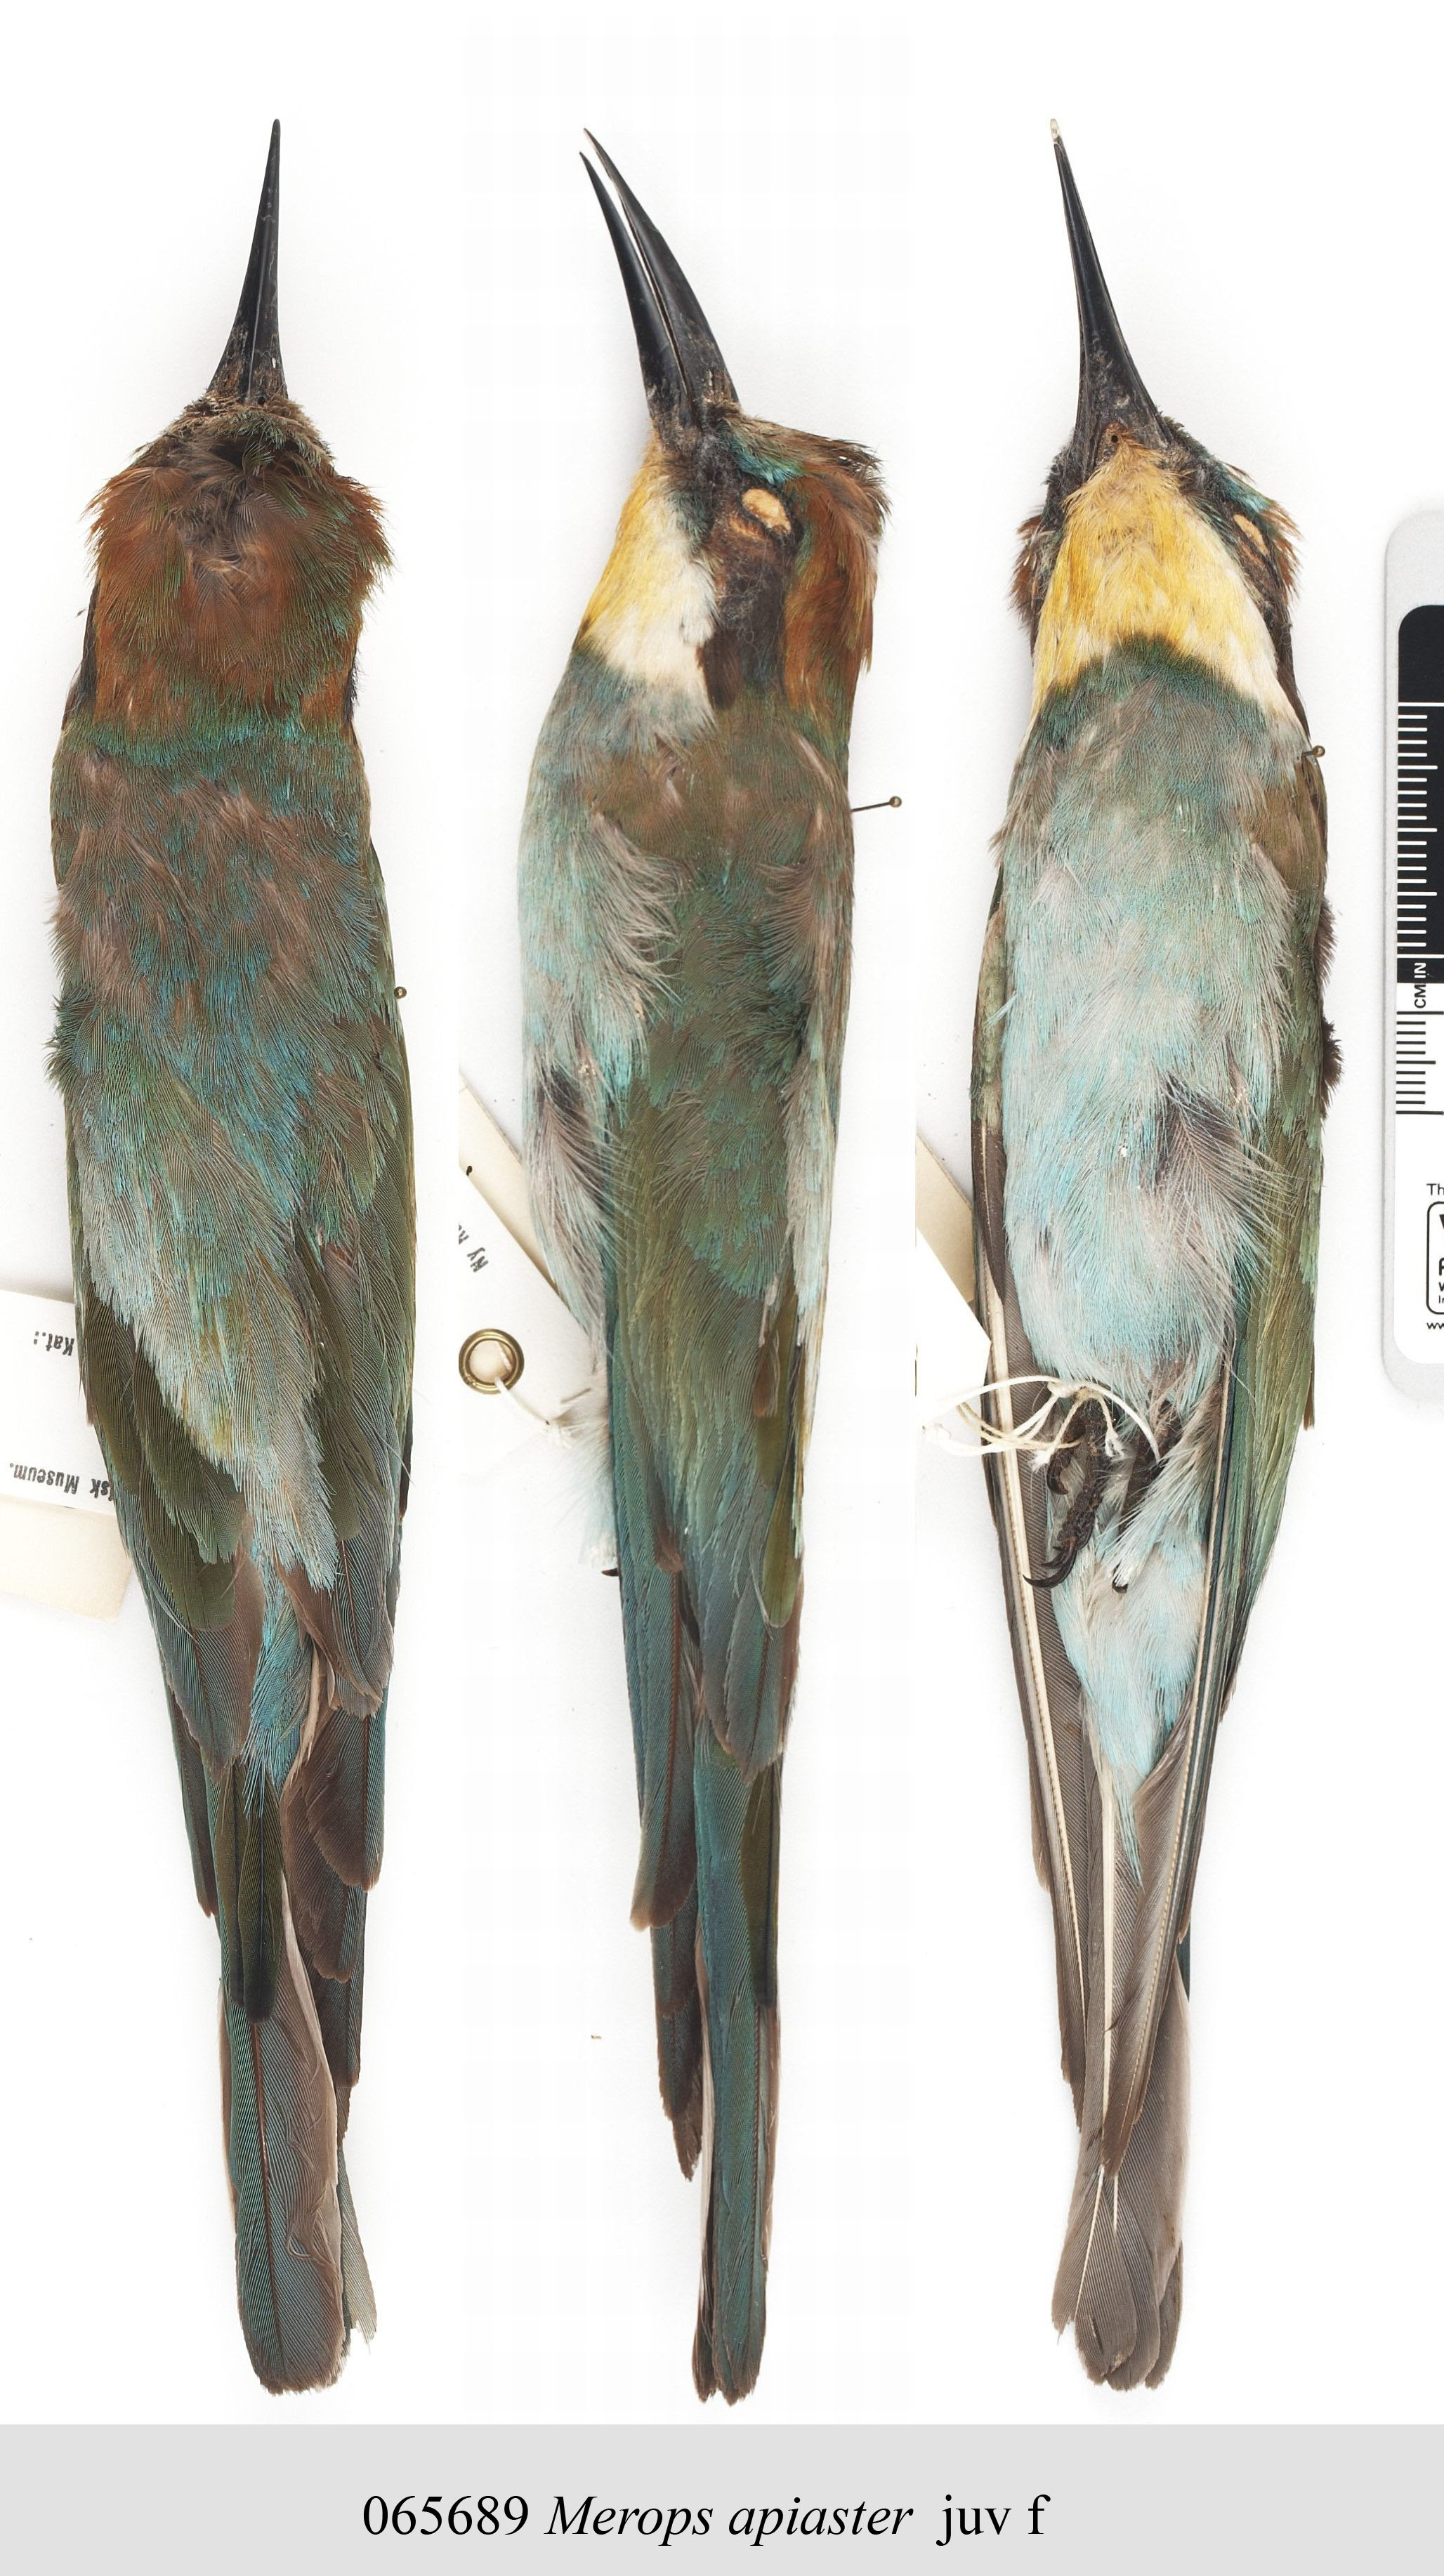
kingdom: Animalia
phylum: Chordata
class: Aves
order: Coraciiformes
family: Meropidae
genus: Merops
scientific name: Merops apiaster
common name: European bee-eater
